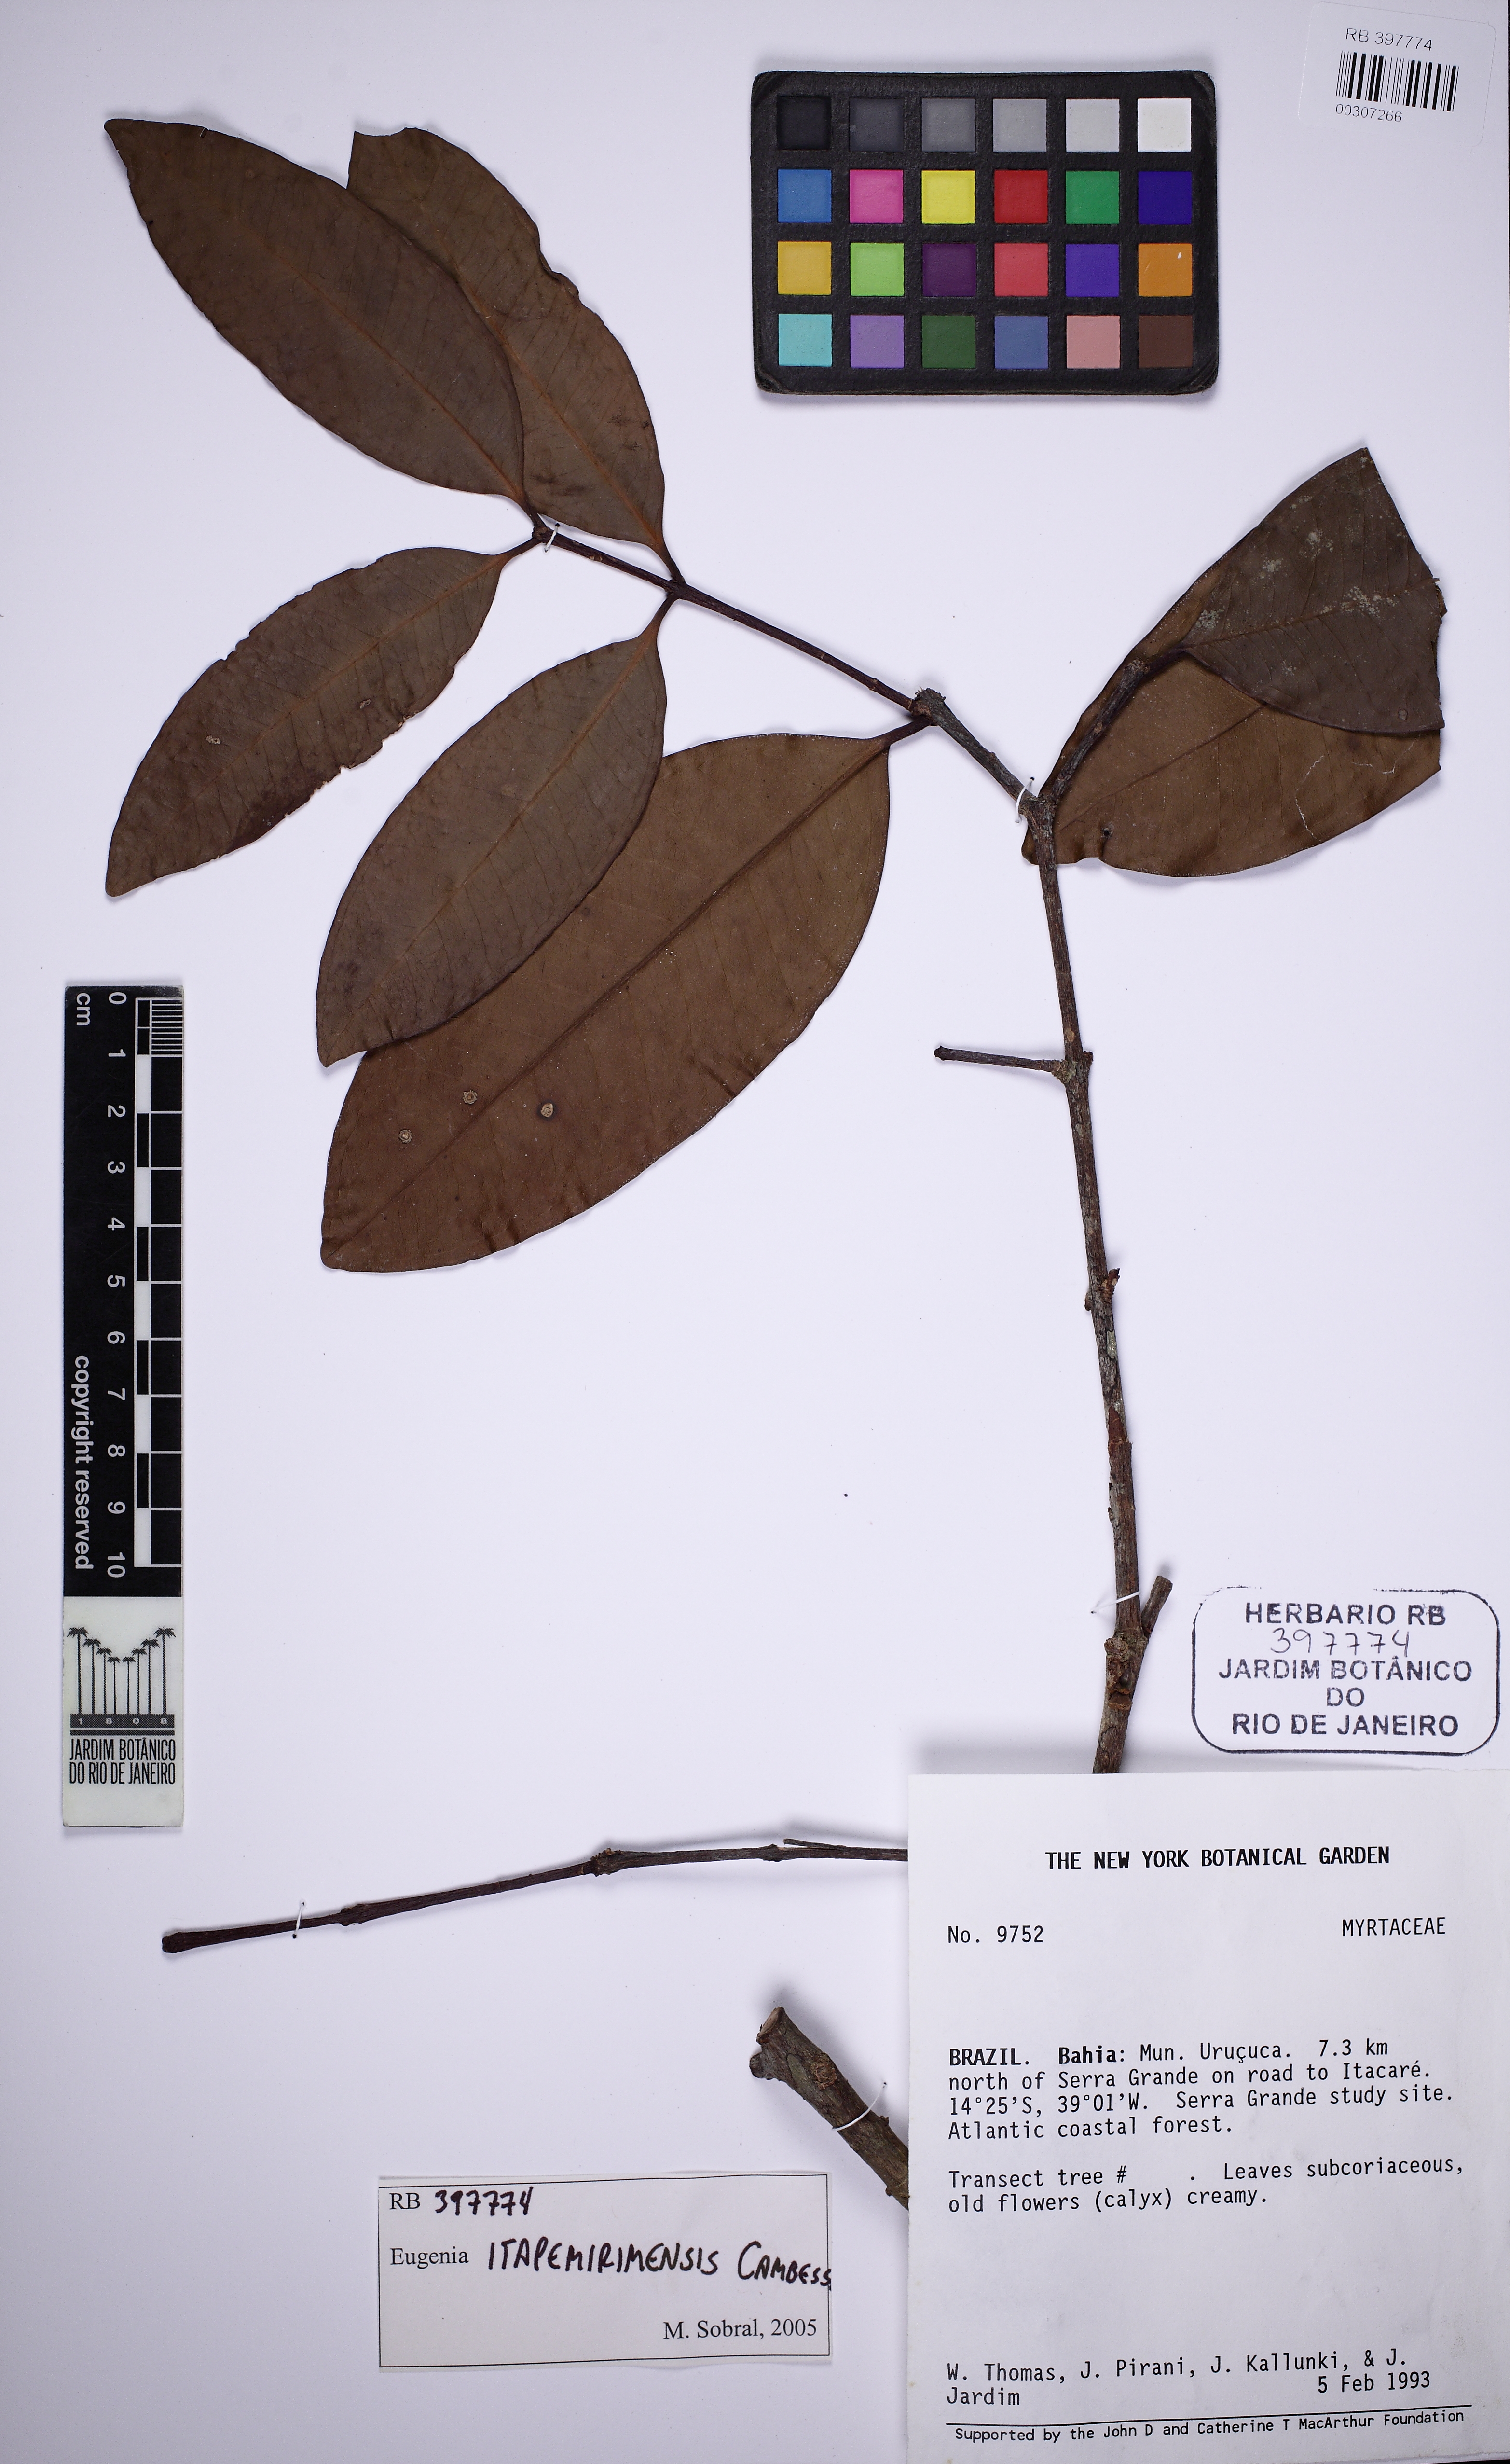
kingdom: Plantae
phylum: Tracheophyta
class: Magnoliopsida
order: Myrtales
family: Myrtaceae
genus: Eugenia
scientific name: Eugenia itapemirimensis
